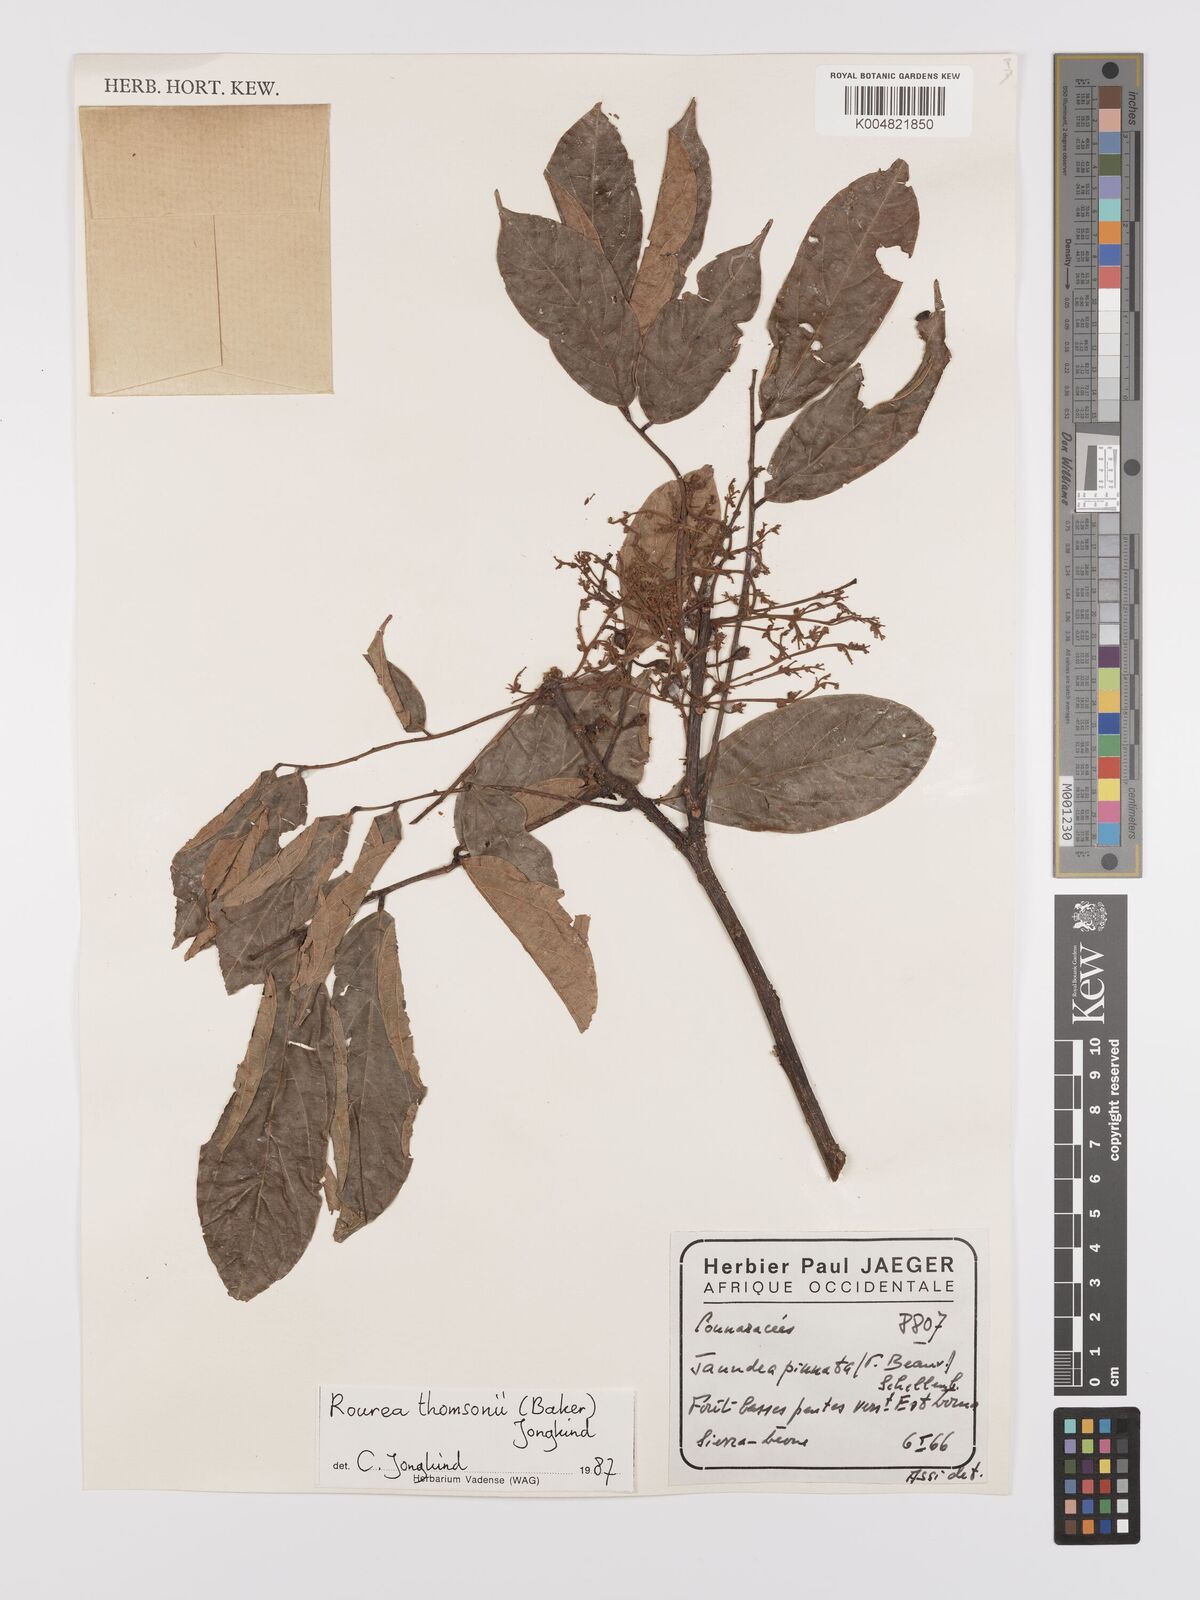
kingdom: Plantae
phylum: Tracheophyta
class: Magnoliopsida
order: Oxalidales
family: Connaraceae
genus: Rourea
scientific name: Rourea pinnata
